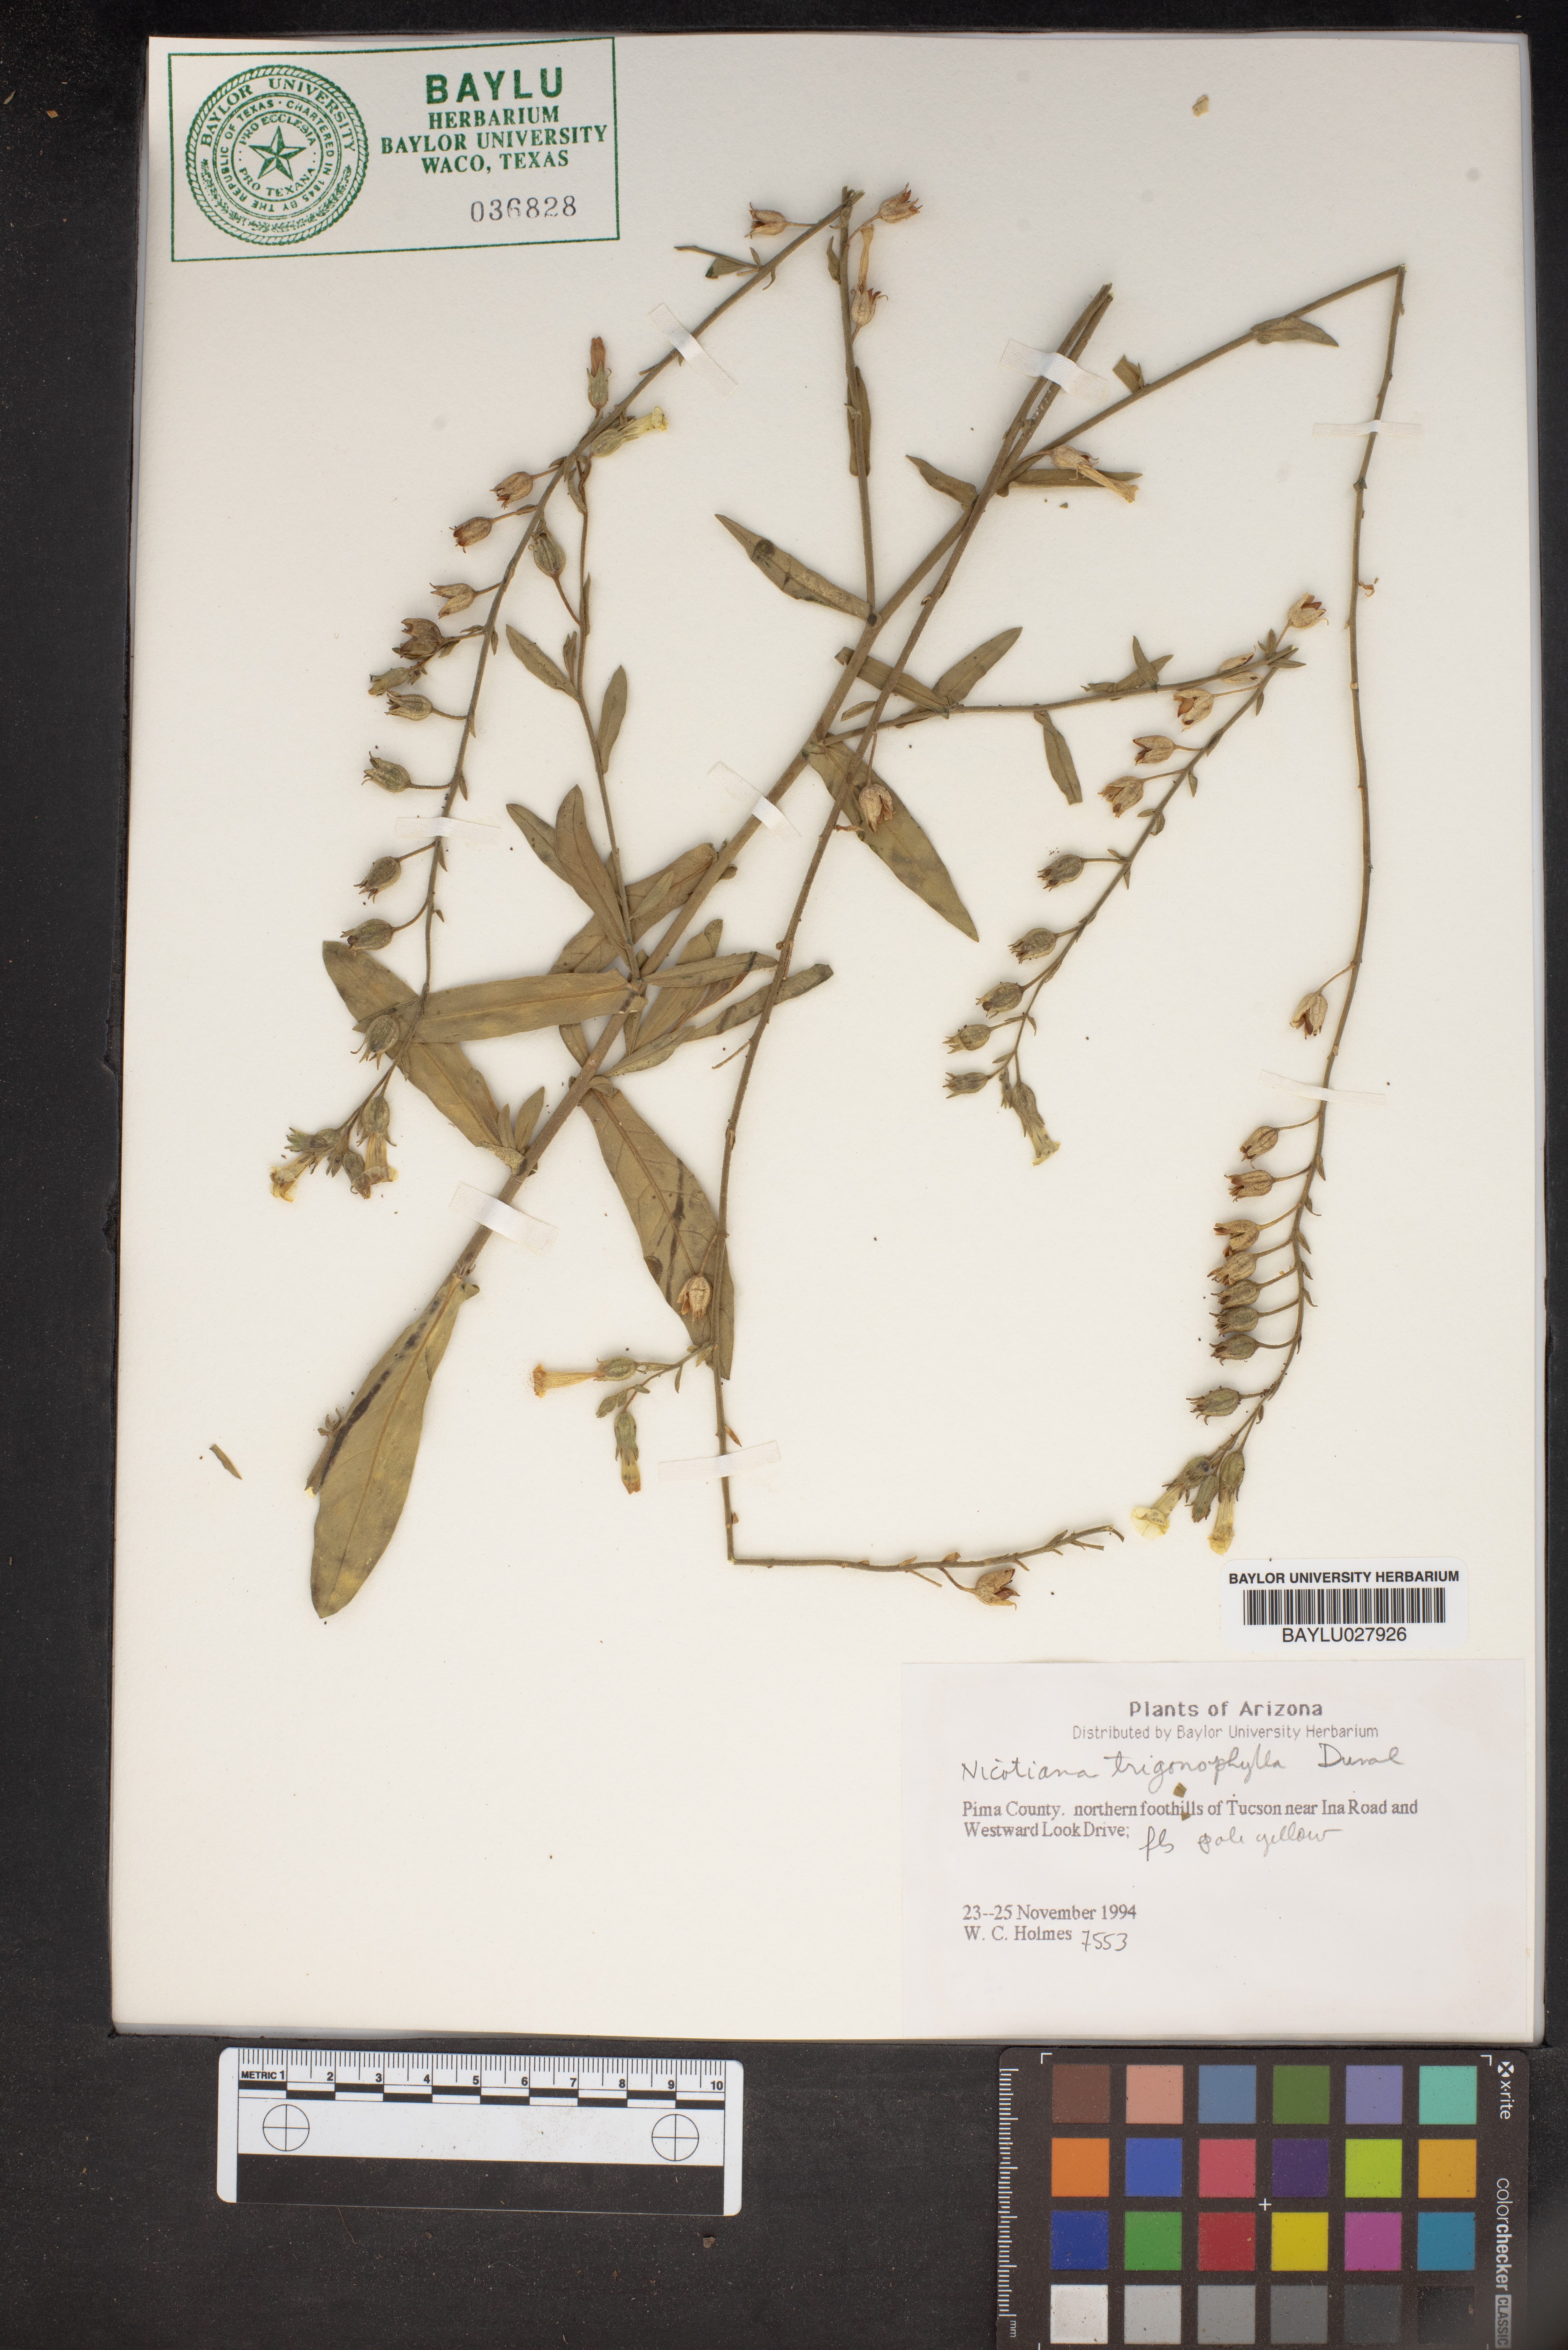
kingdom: Plantae
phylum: Tracheophyta
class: Magnoliopsida
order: Solanales
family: Solanaceae
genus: Nicotiana
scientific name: Nicotiana obtusifolia
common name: Desert tobacco
